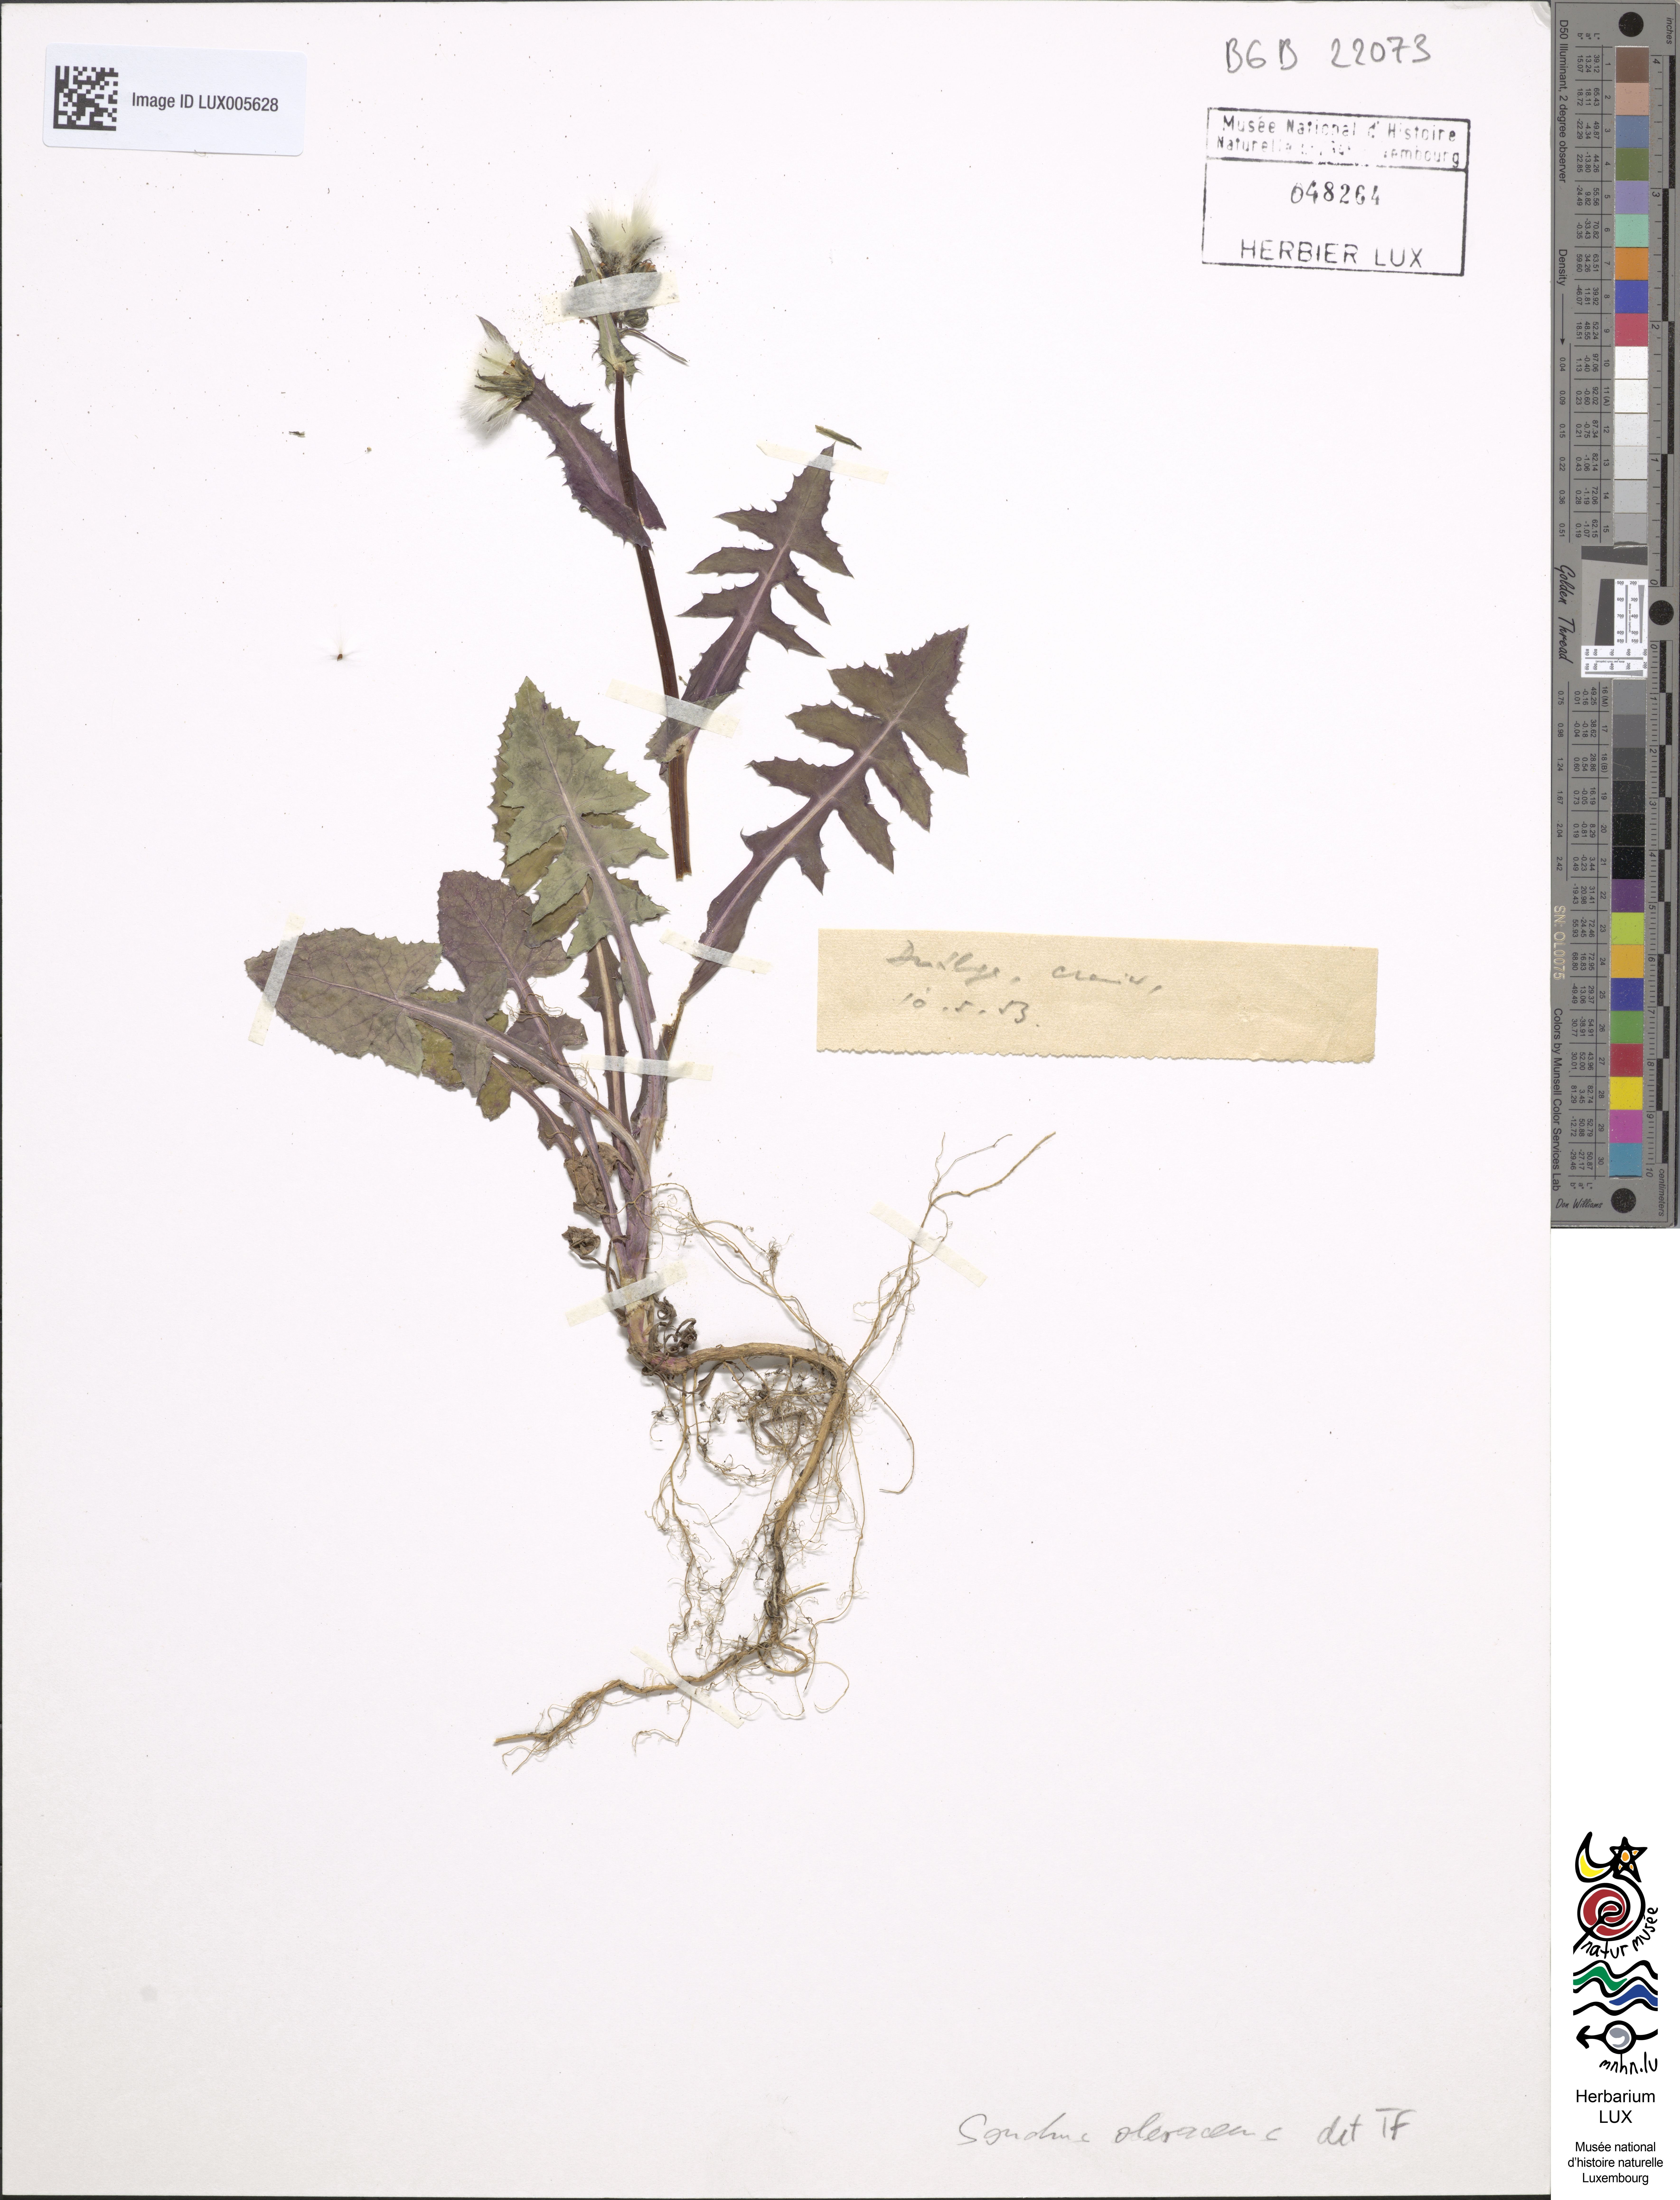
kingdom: Plantae
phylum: Tracheophyta
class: Magnoliopsida
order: Asterales
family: Asteraceae
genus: Sonchus
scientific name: Sonchus oleraceus
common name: Common sowthistle
